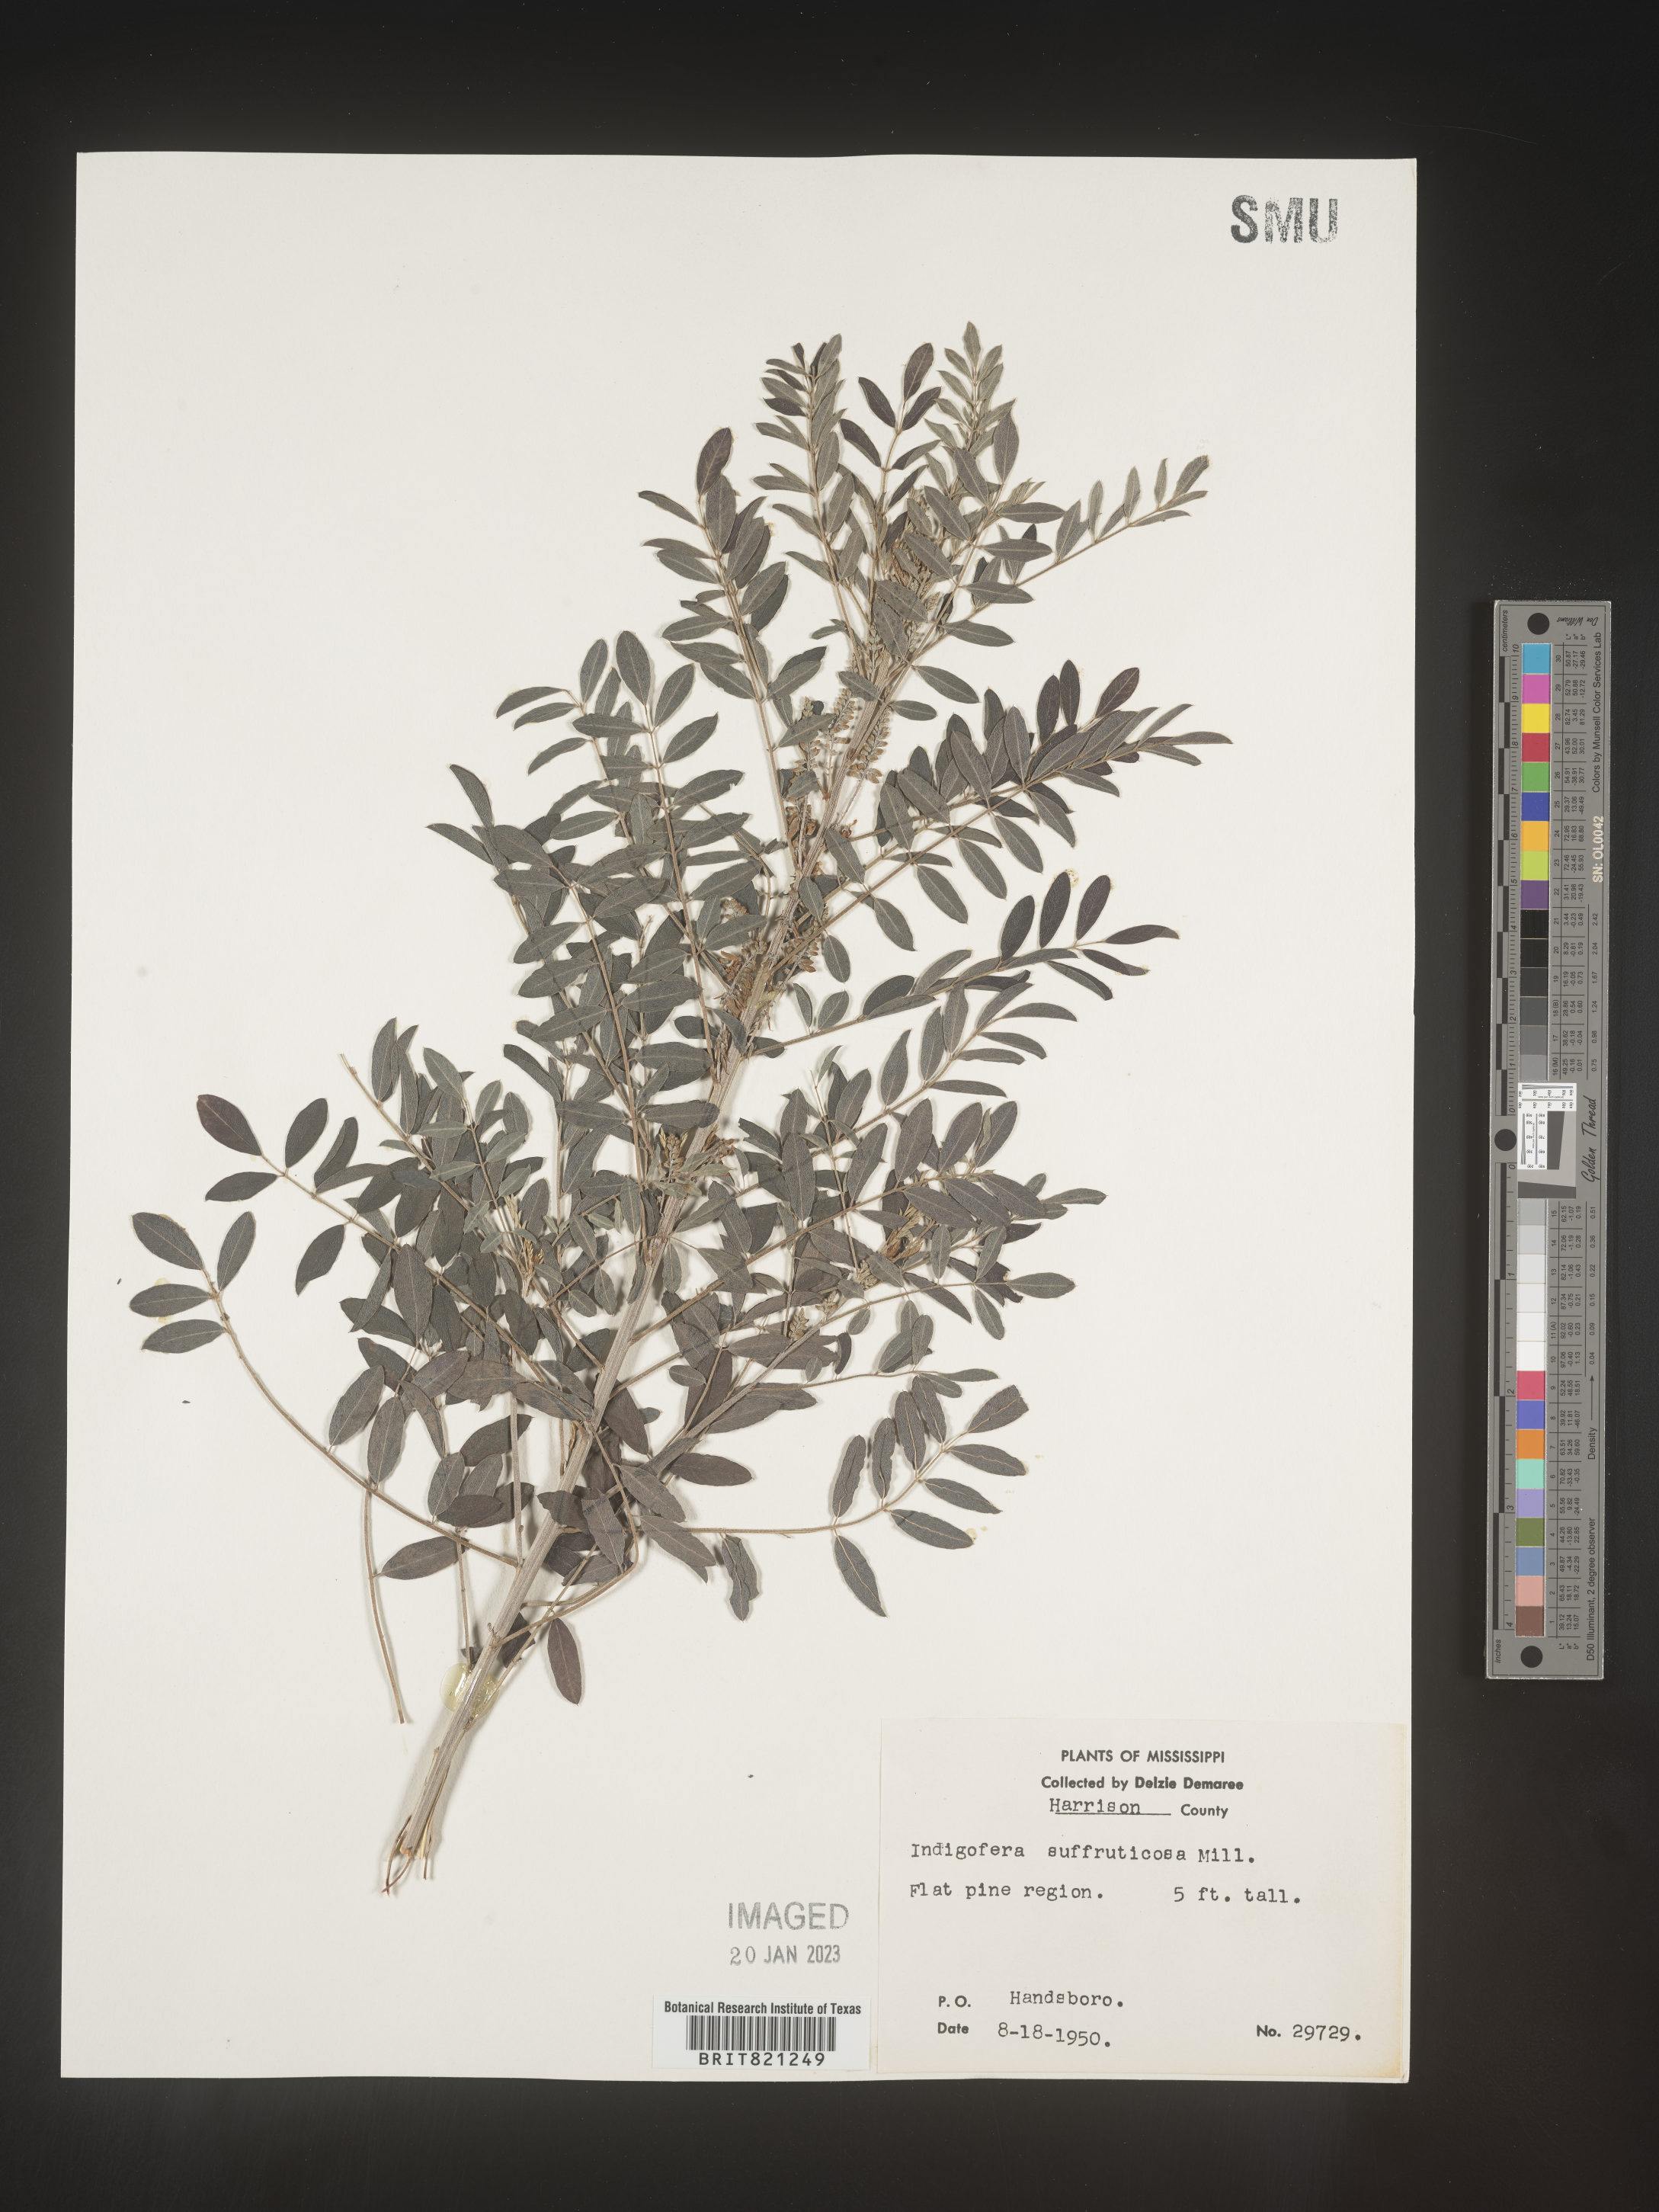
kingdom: Plantae
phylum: Tracheophyta
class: Magnoliopsida
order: Fabales
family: Fabaceae
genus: Indigofera
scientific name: Indigofera
